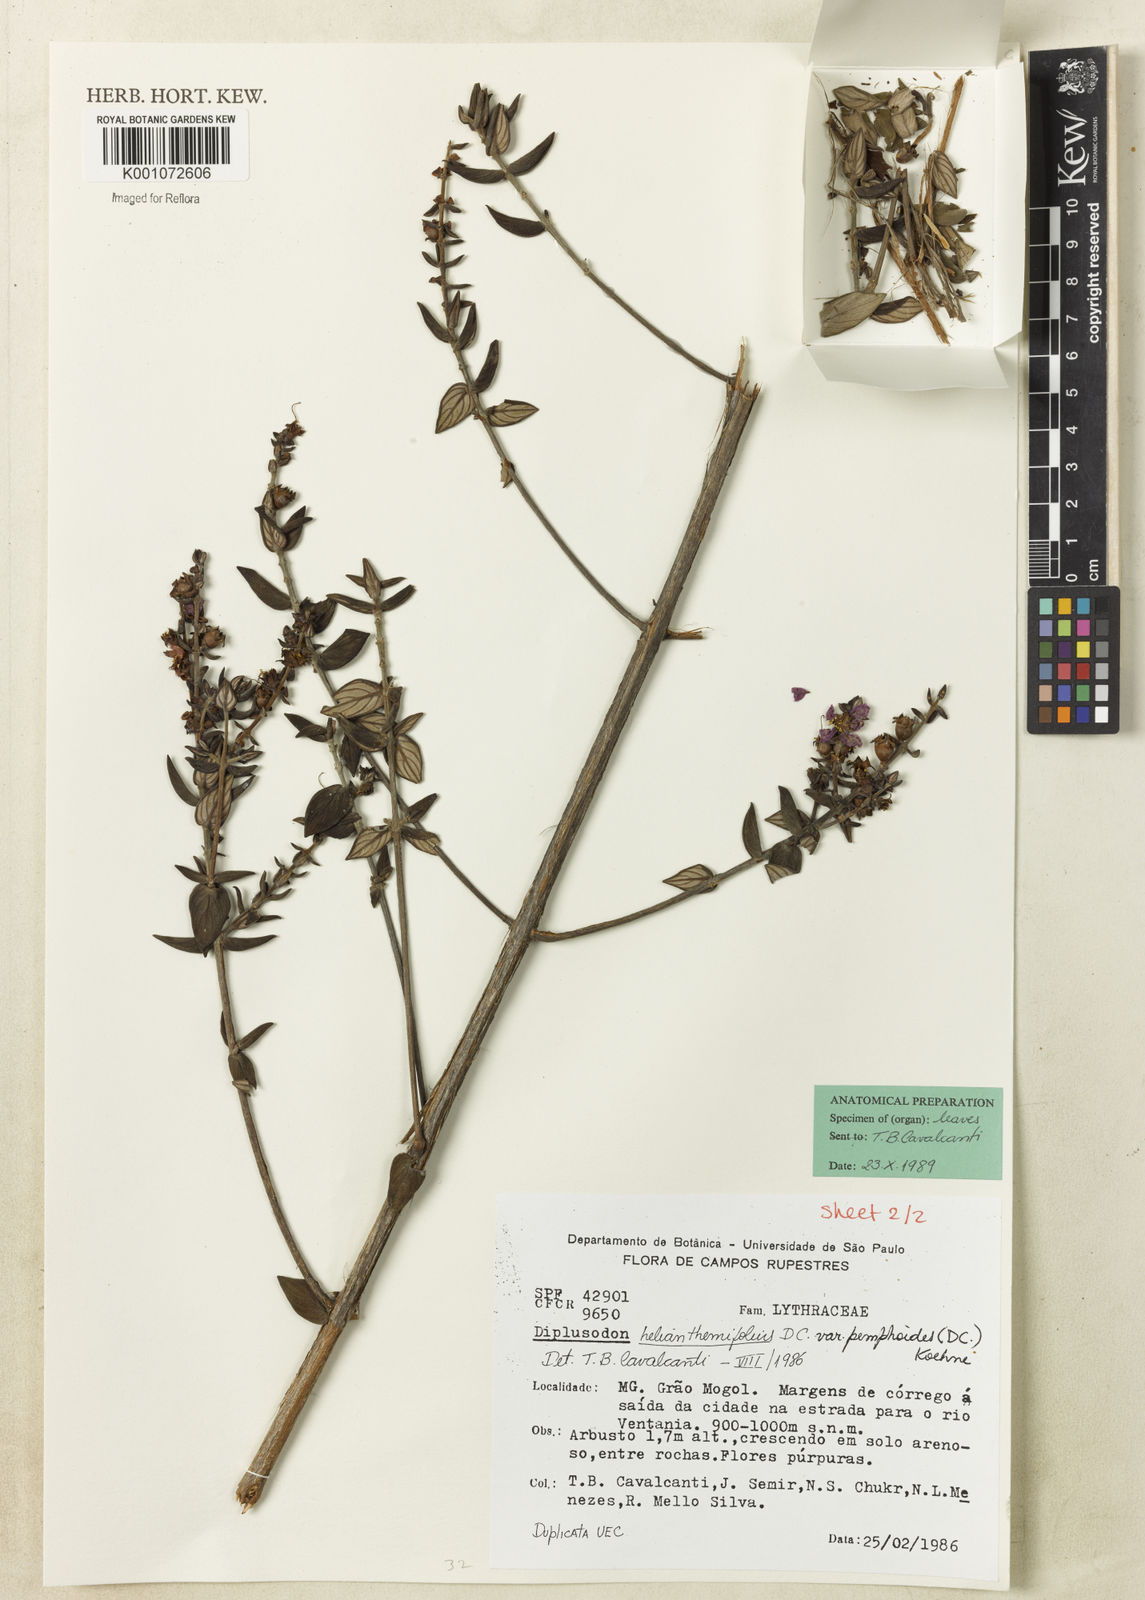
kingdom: Plantae
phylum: Tracheophyta
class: Magnoliopsida
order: Myrtales
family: Lythraceae
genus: Diplusodon
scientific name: Diplusodon helianthemifolius
